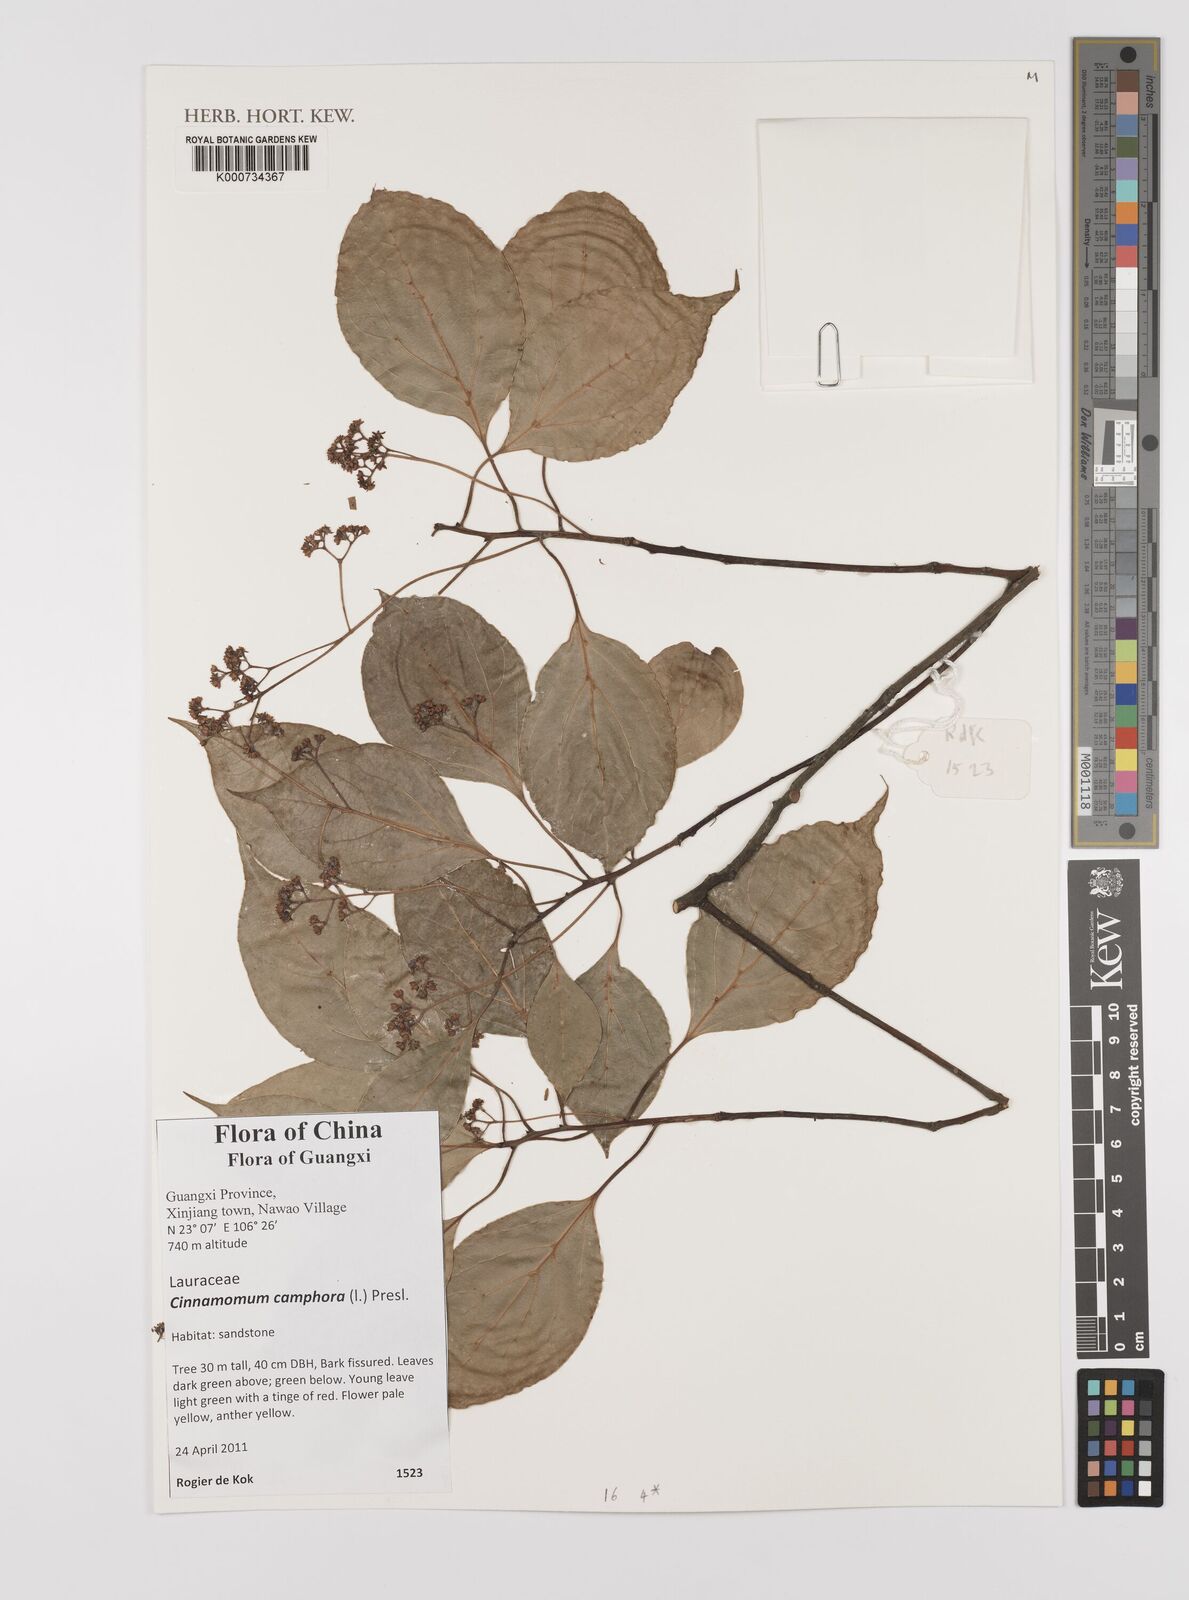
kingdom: Plantae
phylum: Tracheophyta
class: Magnoliopsida
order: Laurales
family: Lauraceae
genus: Cinnamomum
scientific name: Cinnamomum camphora
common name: Camphortree
